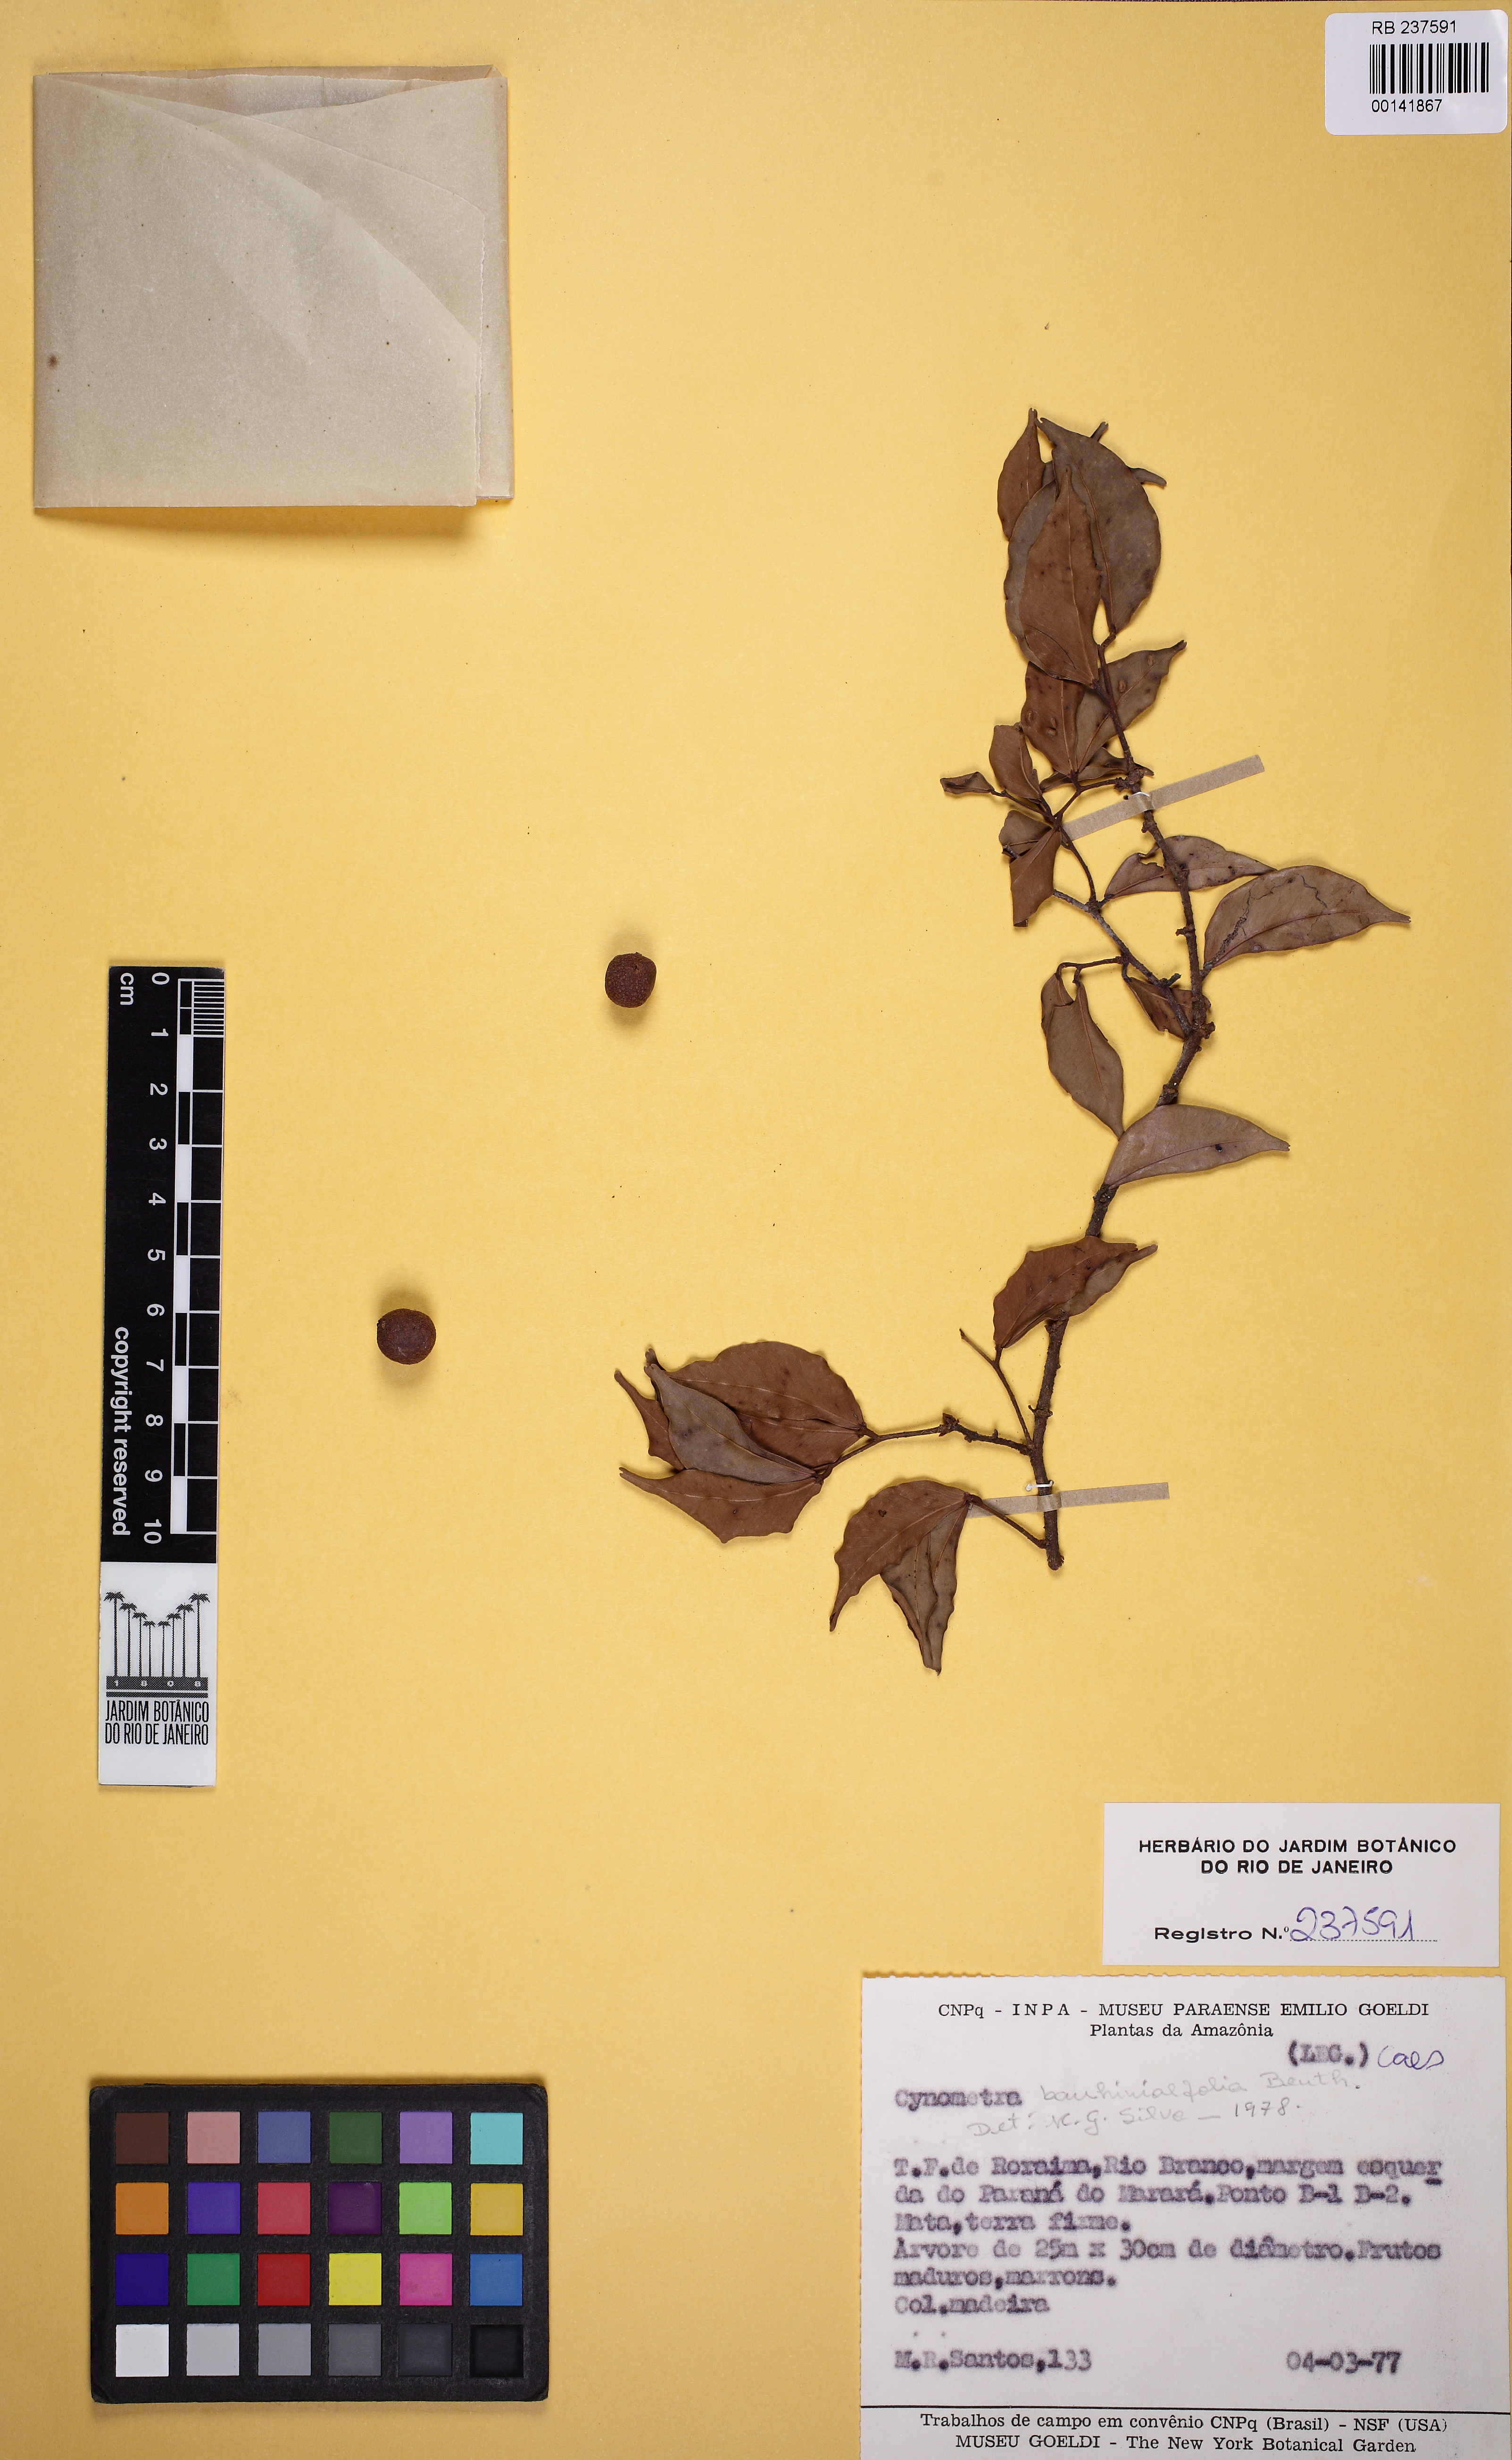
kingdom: Plantae
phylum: Tracheophyta
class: Magnoliopsida
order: Fabales
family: Fabaceae
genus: Cynometra
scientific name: Cynometra longicuspis
